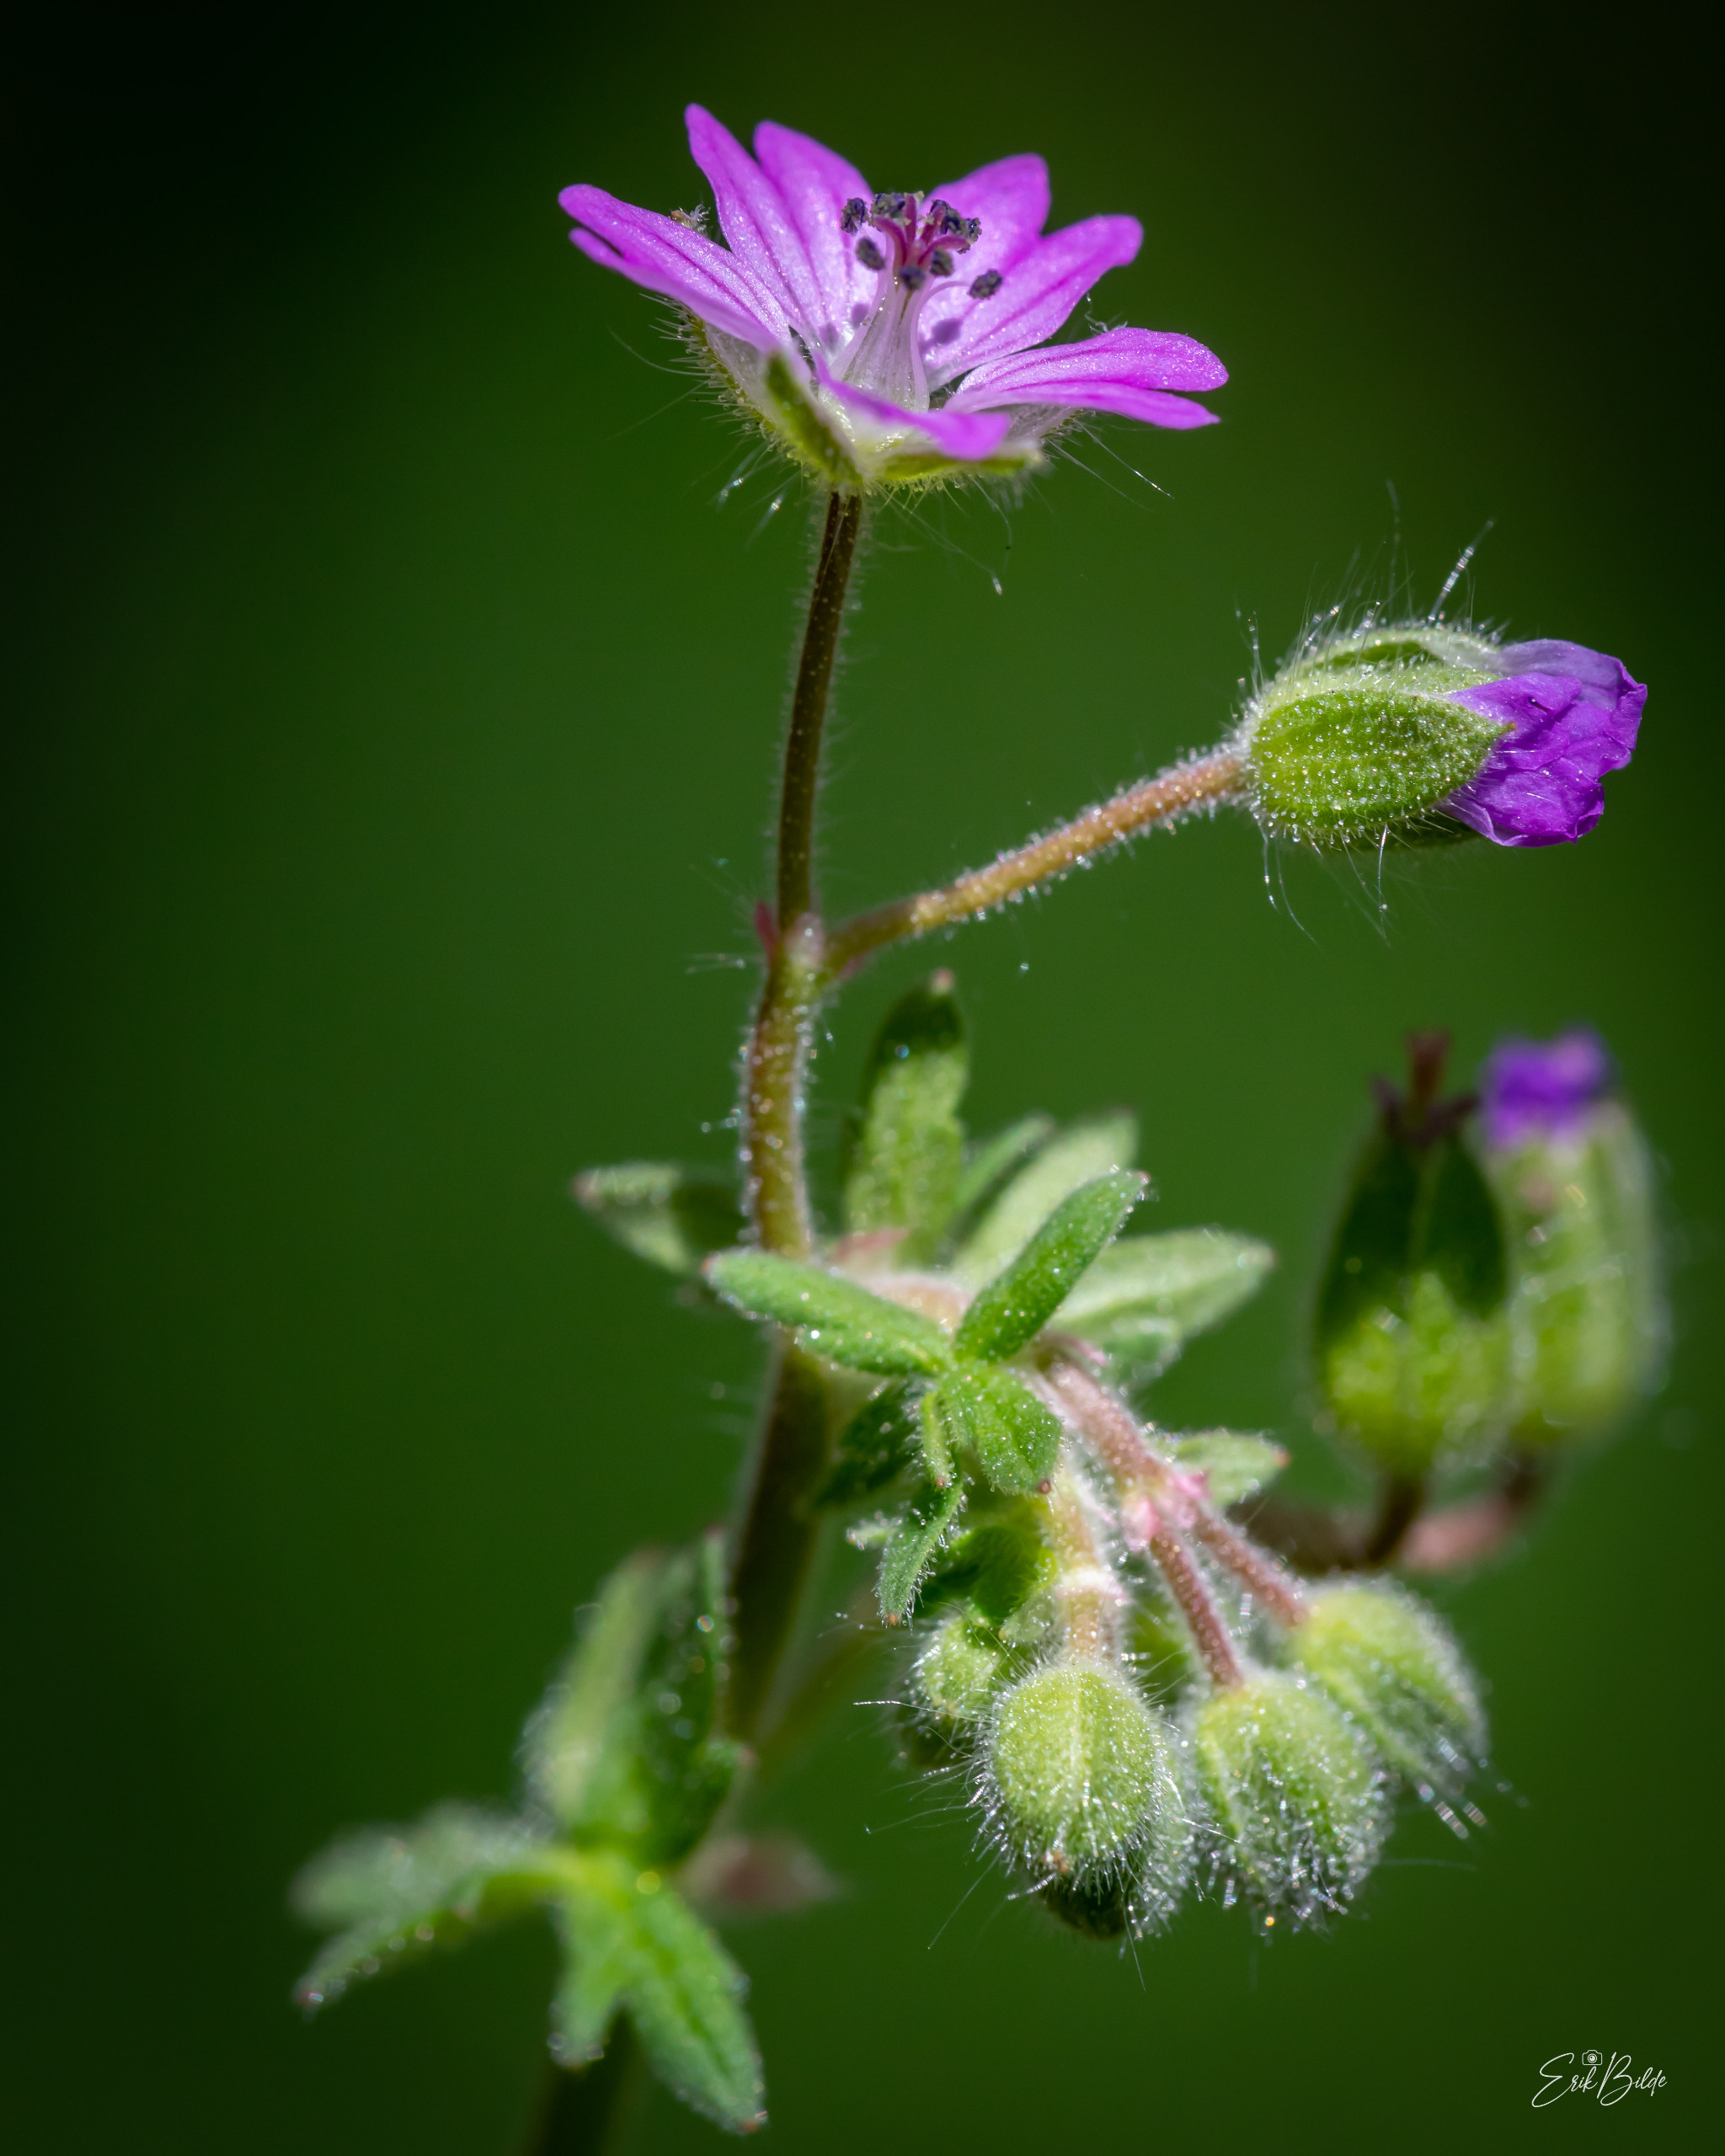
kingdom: Plantae
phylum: Tracheophyta
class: Magnoliopsida
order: Geraniales
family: Geraniaceae
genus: Geranium
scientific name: Geranium molle
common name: Blød storkenæb
